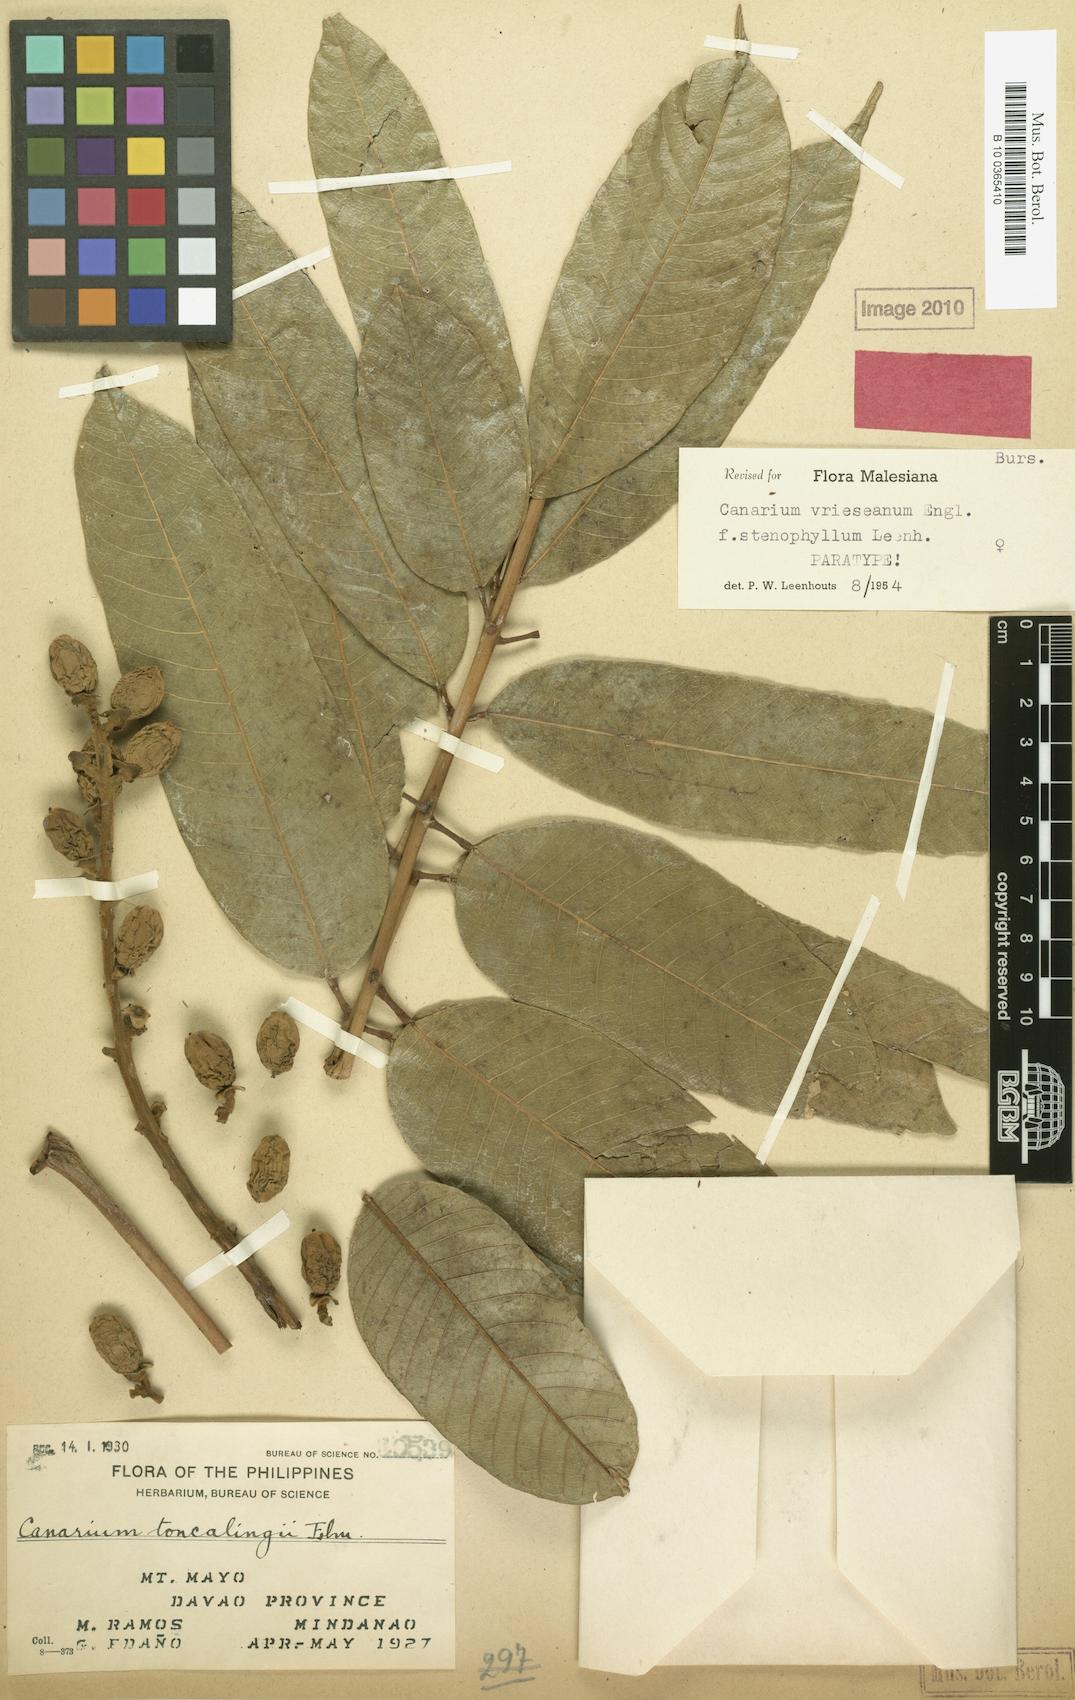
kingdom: Plantae
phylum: Tracheophyta
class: Magnoliopsida
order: Sapindales
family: Burseraceae
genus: Canarium
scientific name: Canarium vrieseanum
